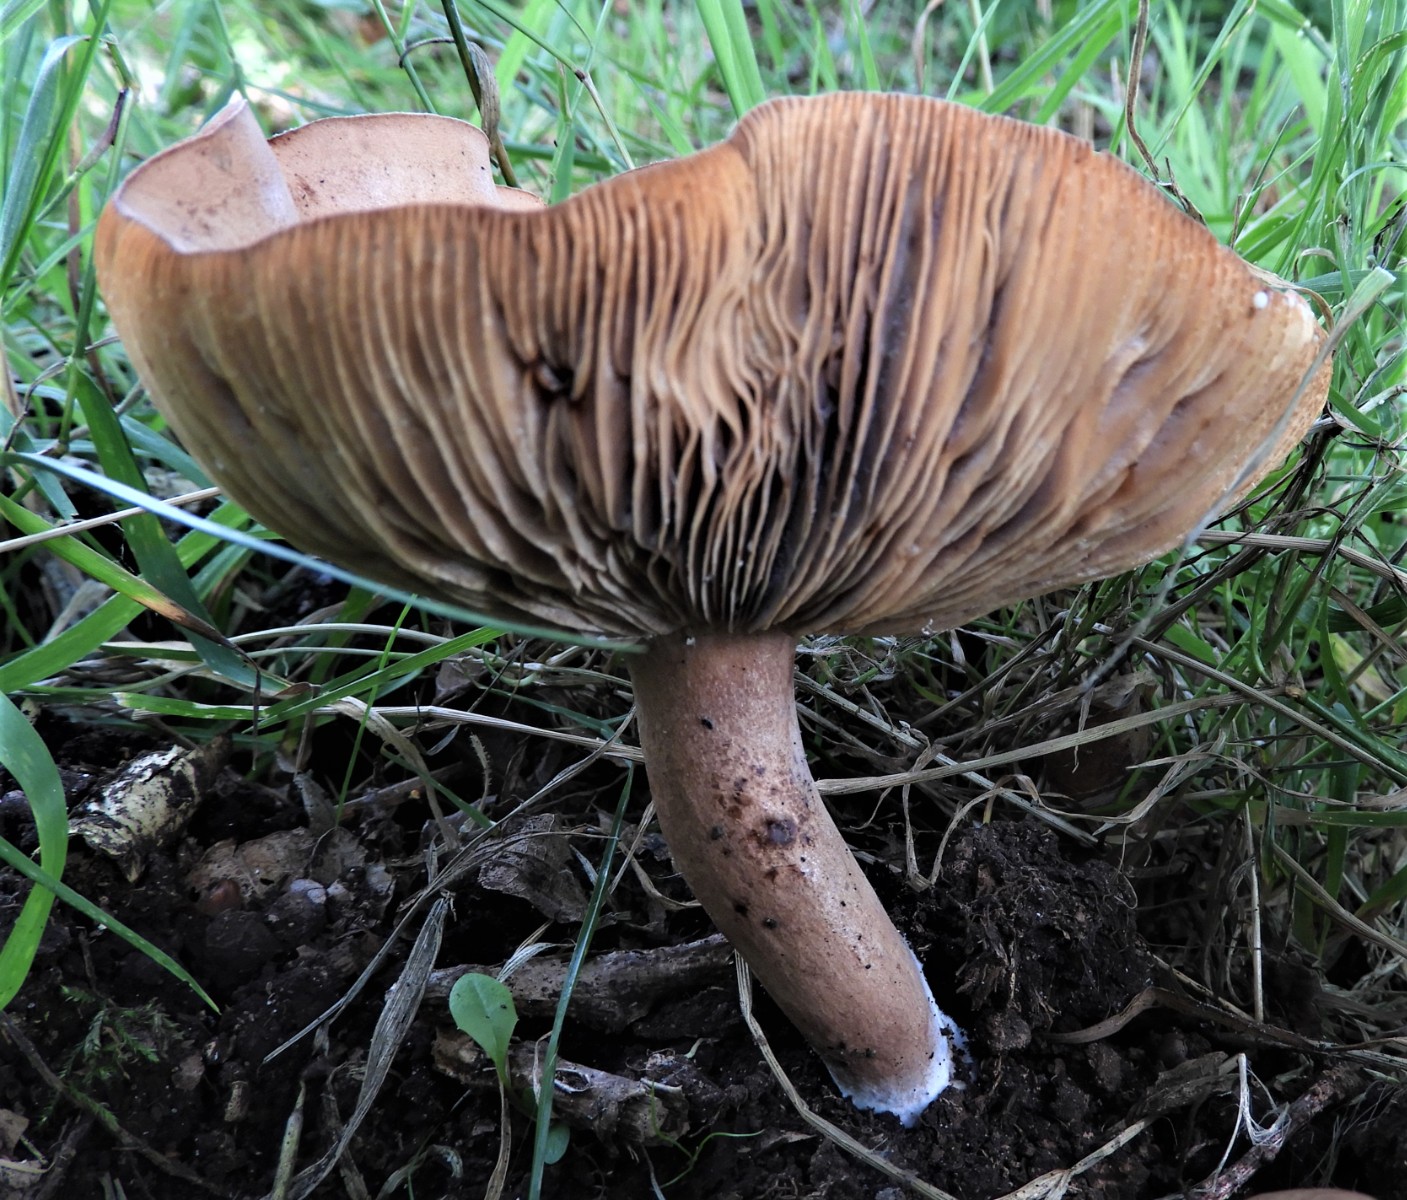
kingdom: Fungi
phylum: Basidiomycota
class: Agaricomycetes
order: Russulales
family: Russulaceae
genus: Lactarius
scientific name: Lactarius helvus
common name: mose-mælkehat
